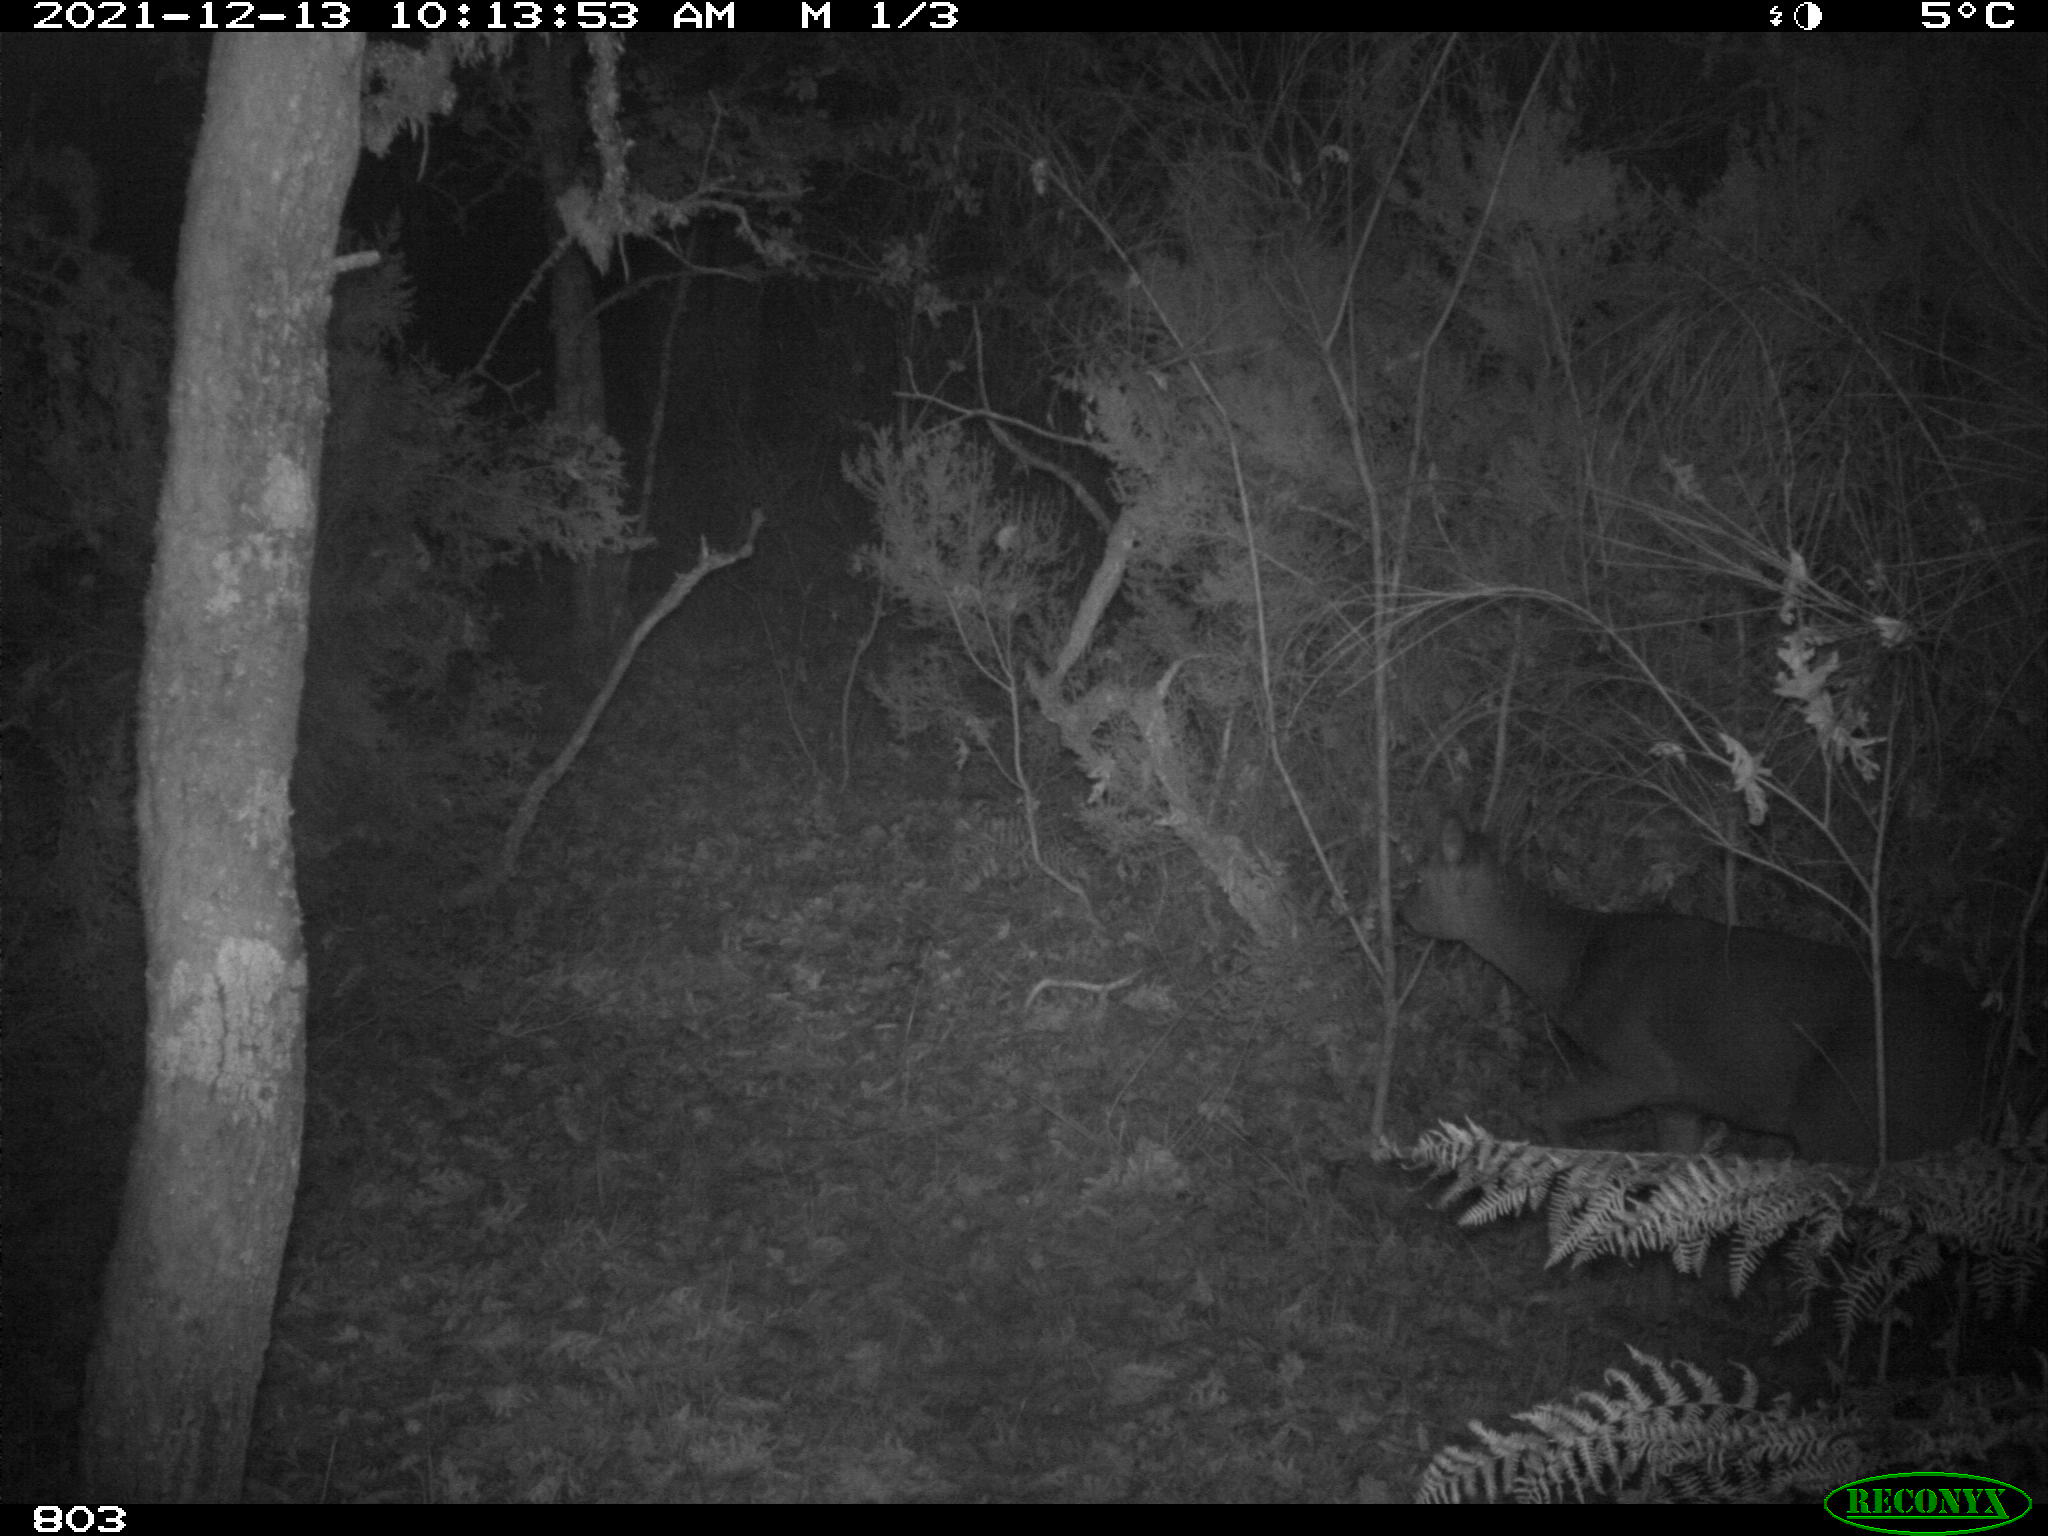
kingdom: Animalia
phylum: Chordata
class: Mammalia
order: Artiodactyla
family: Cervidae
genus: Capreolus
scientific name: Capreolus capreolus
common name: Western roe deer
